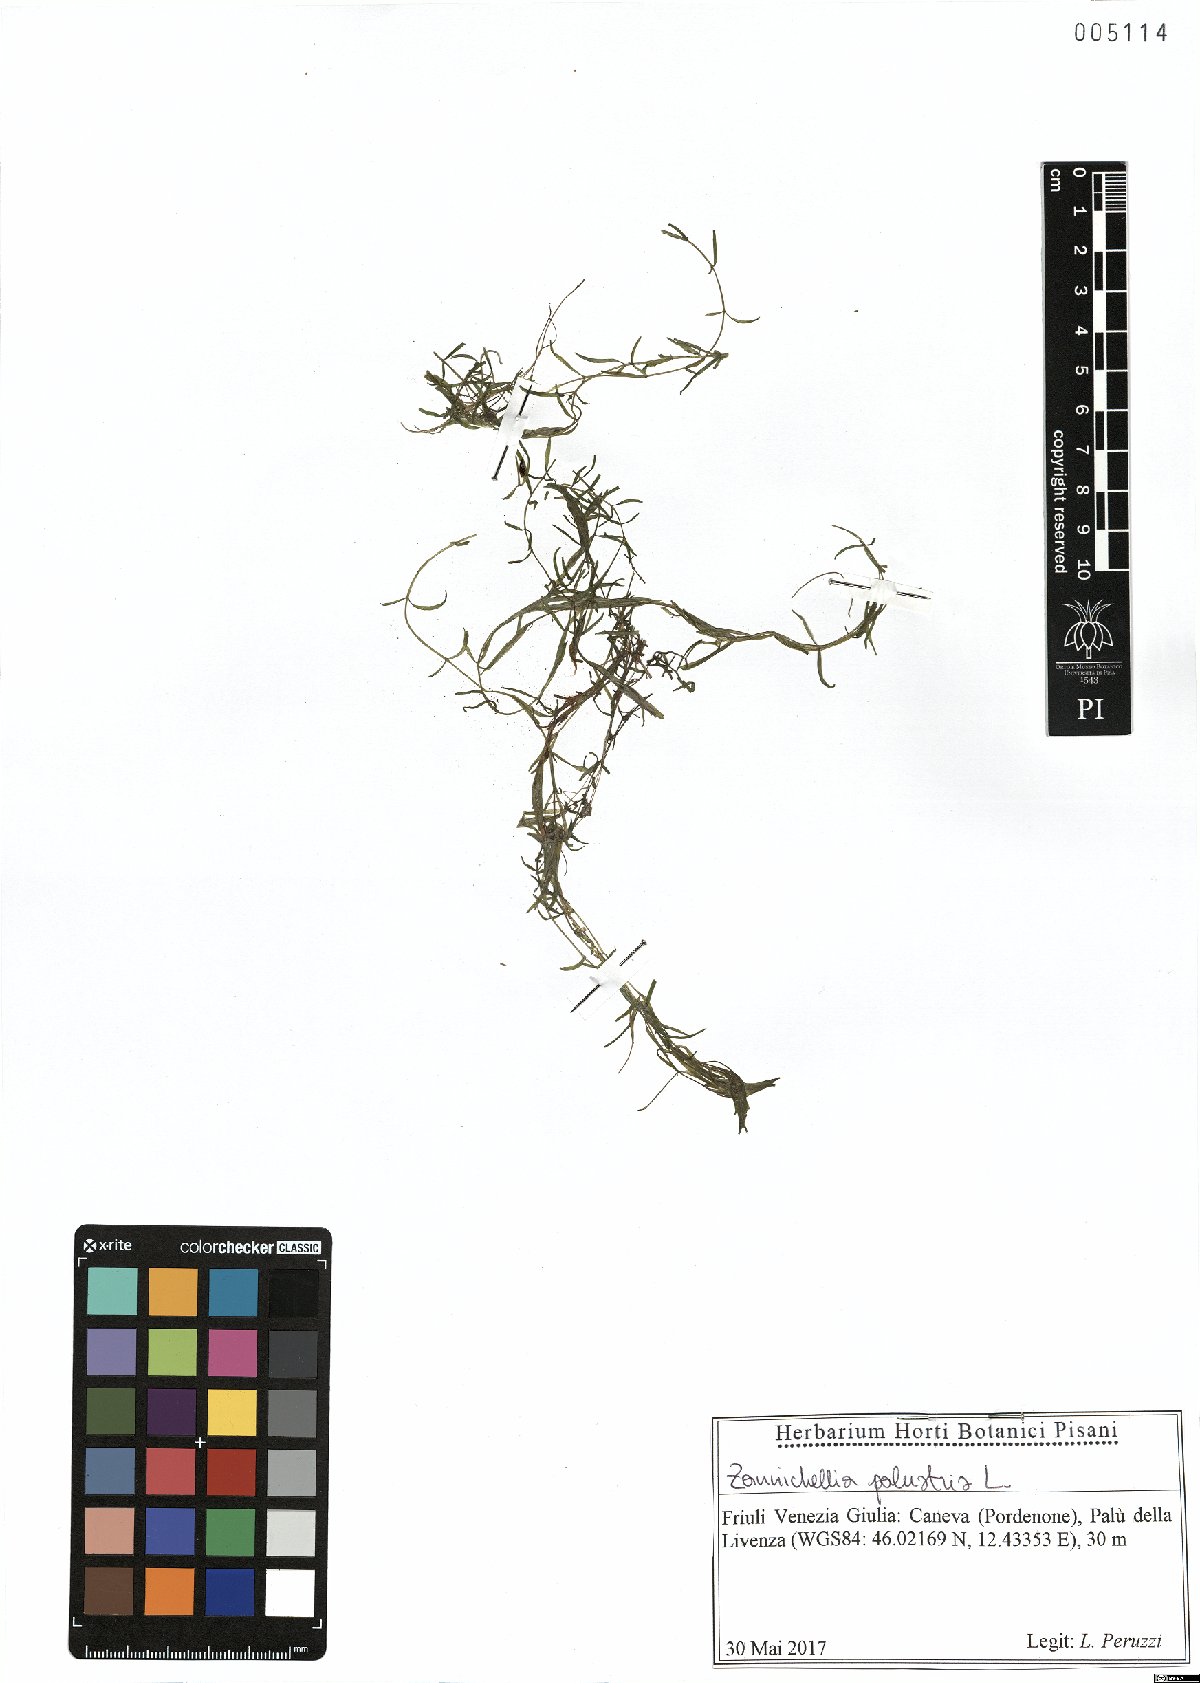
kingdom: Plantae
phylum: Tracheophyta
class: Liliopsida
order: Alismatales
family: Potamogetonaceae
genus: Zannichellia
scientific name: Zannichellia palustris
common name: Horned pondweed
